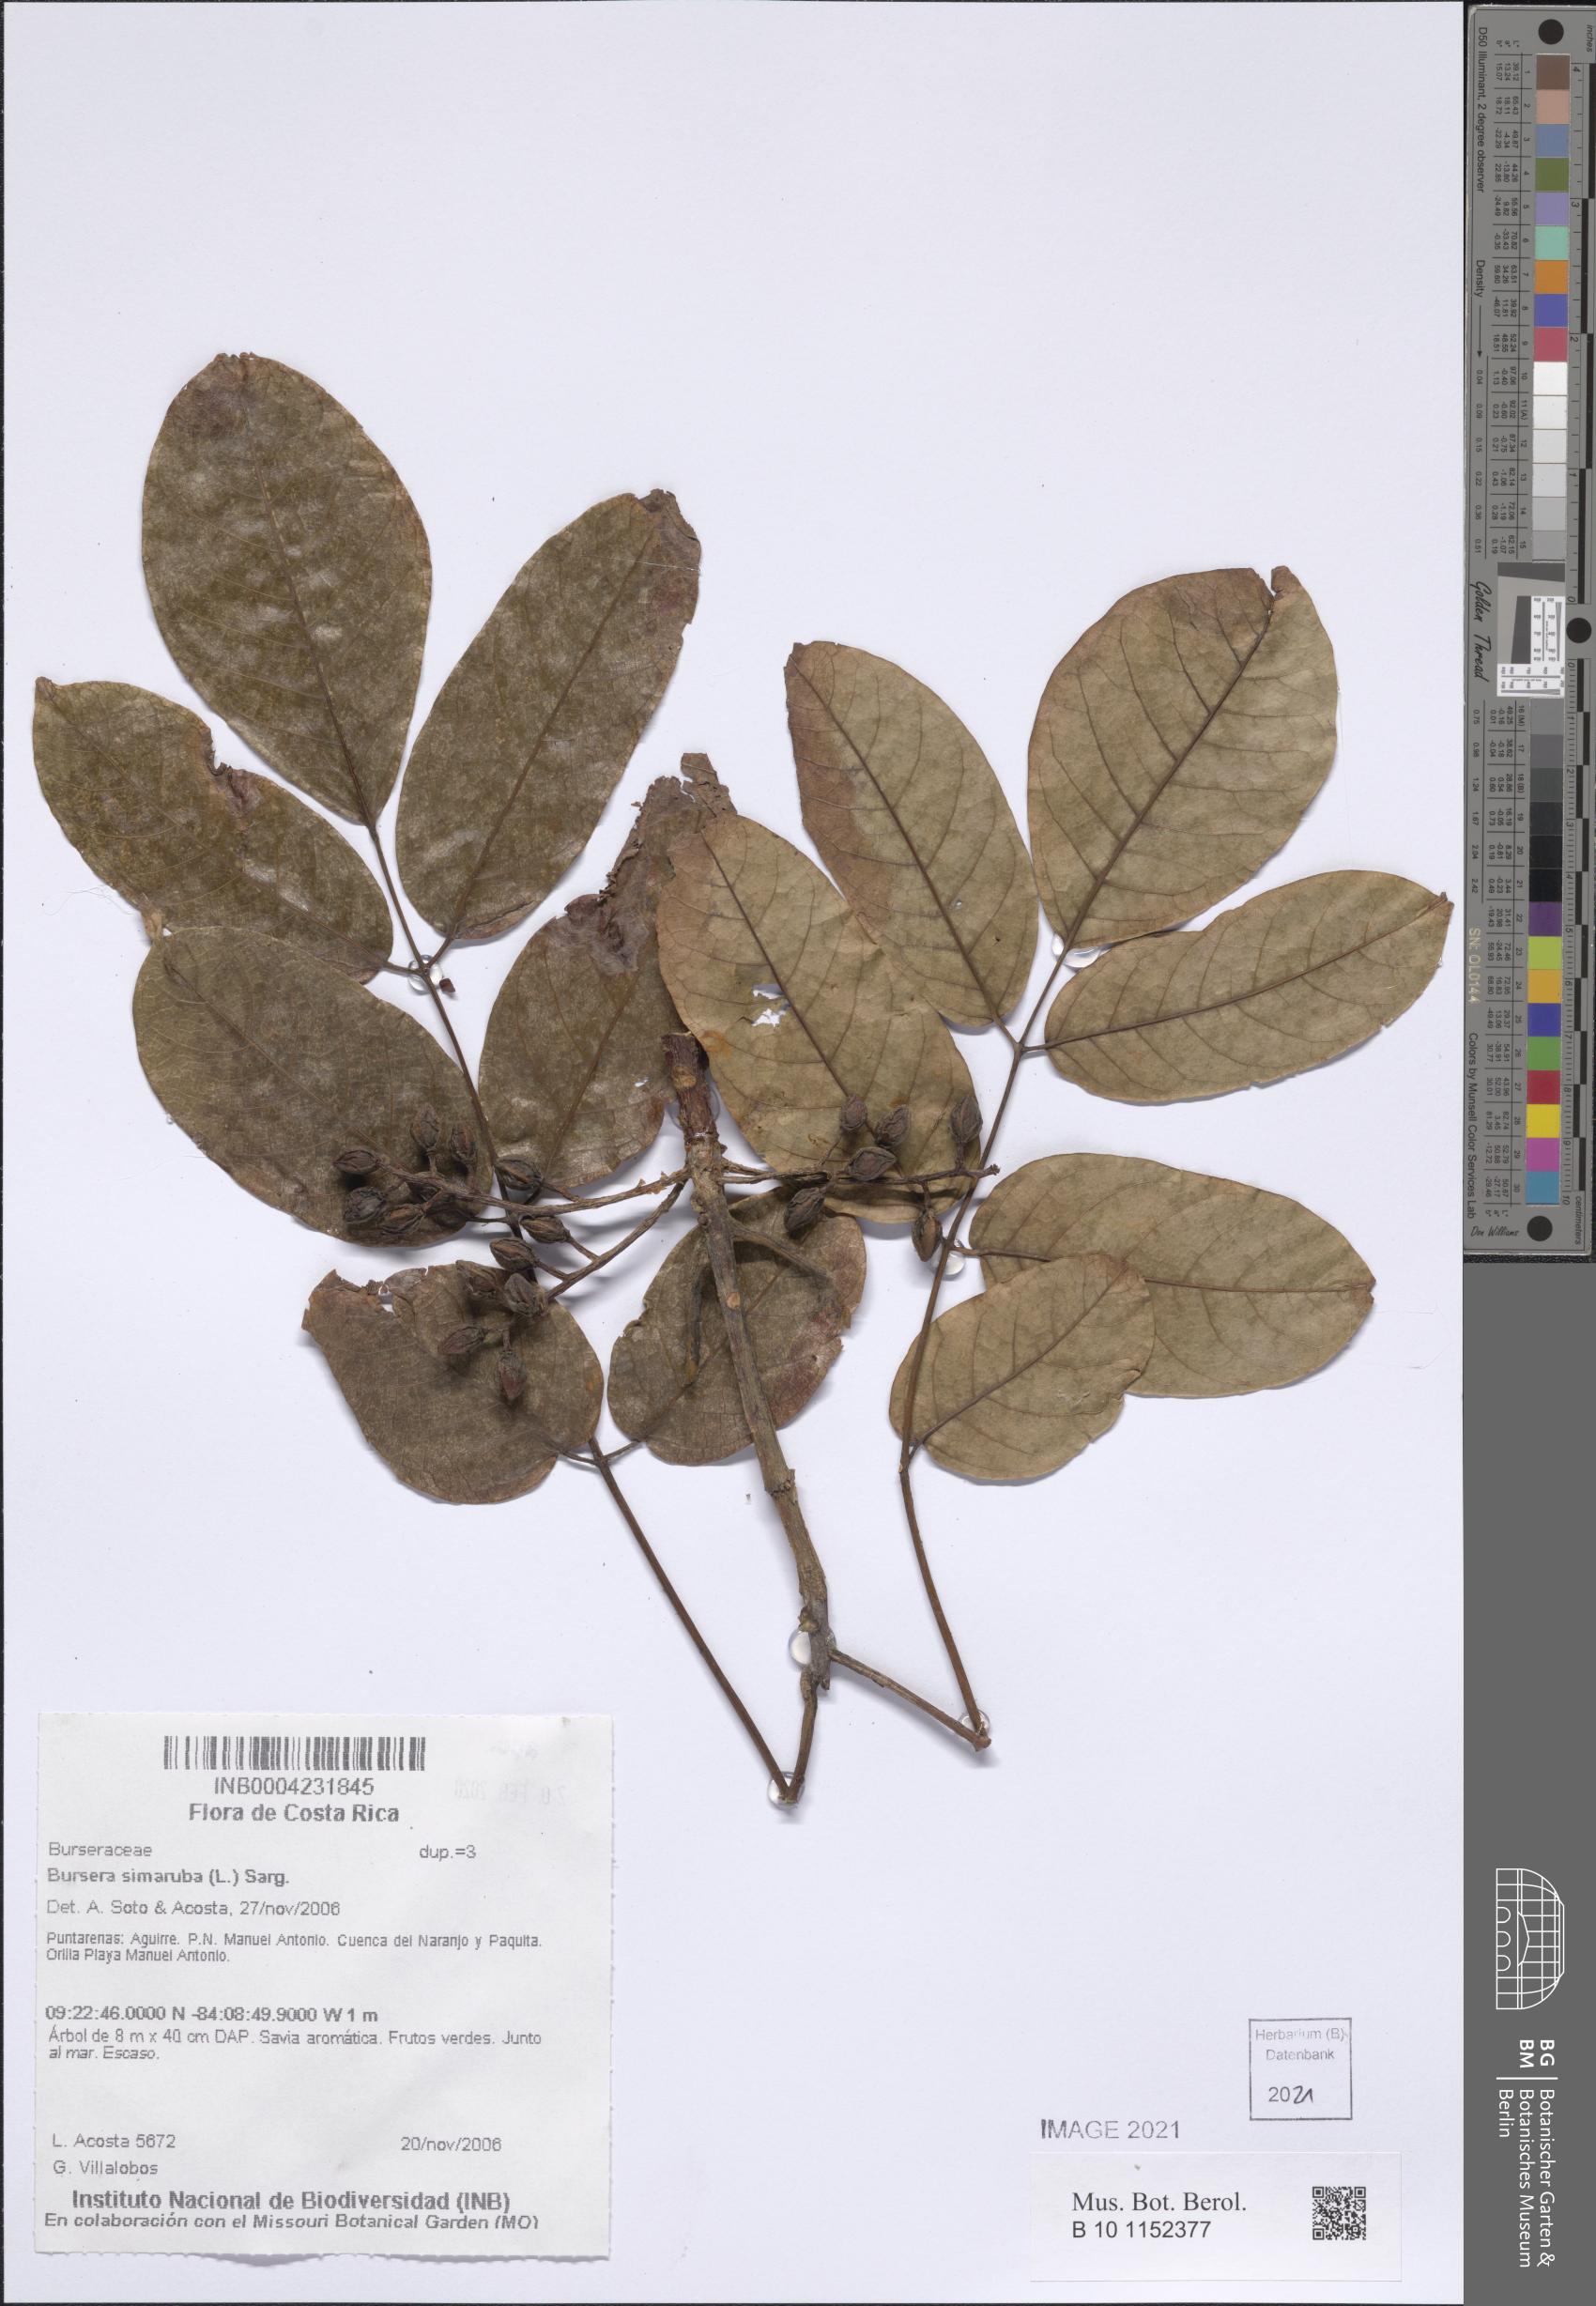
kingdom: Plantae
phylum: Tracheophyta
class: Magnoliopsida
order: Sapindales
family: Burseraceae
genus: Bursera
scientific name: Bursera simaruba
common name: Turpentine tree
